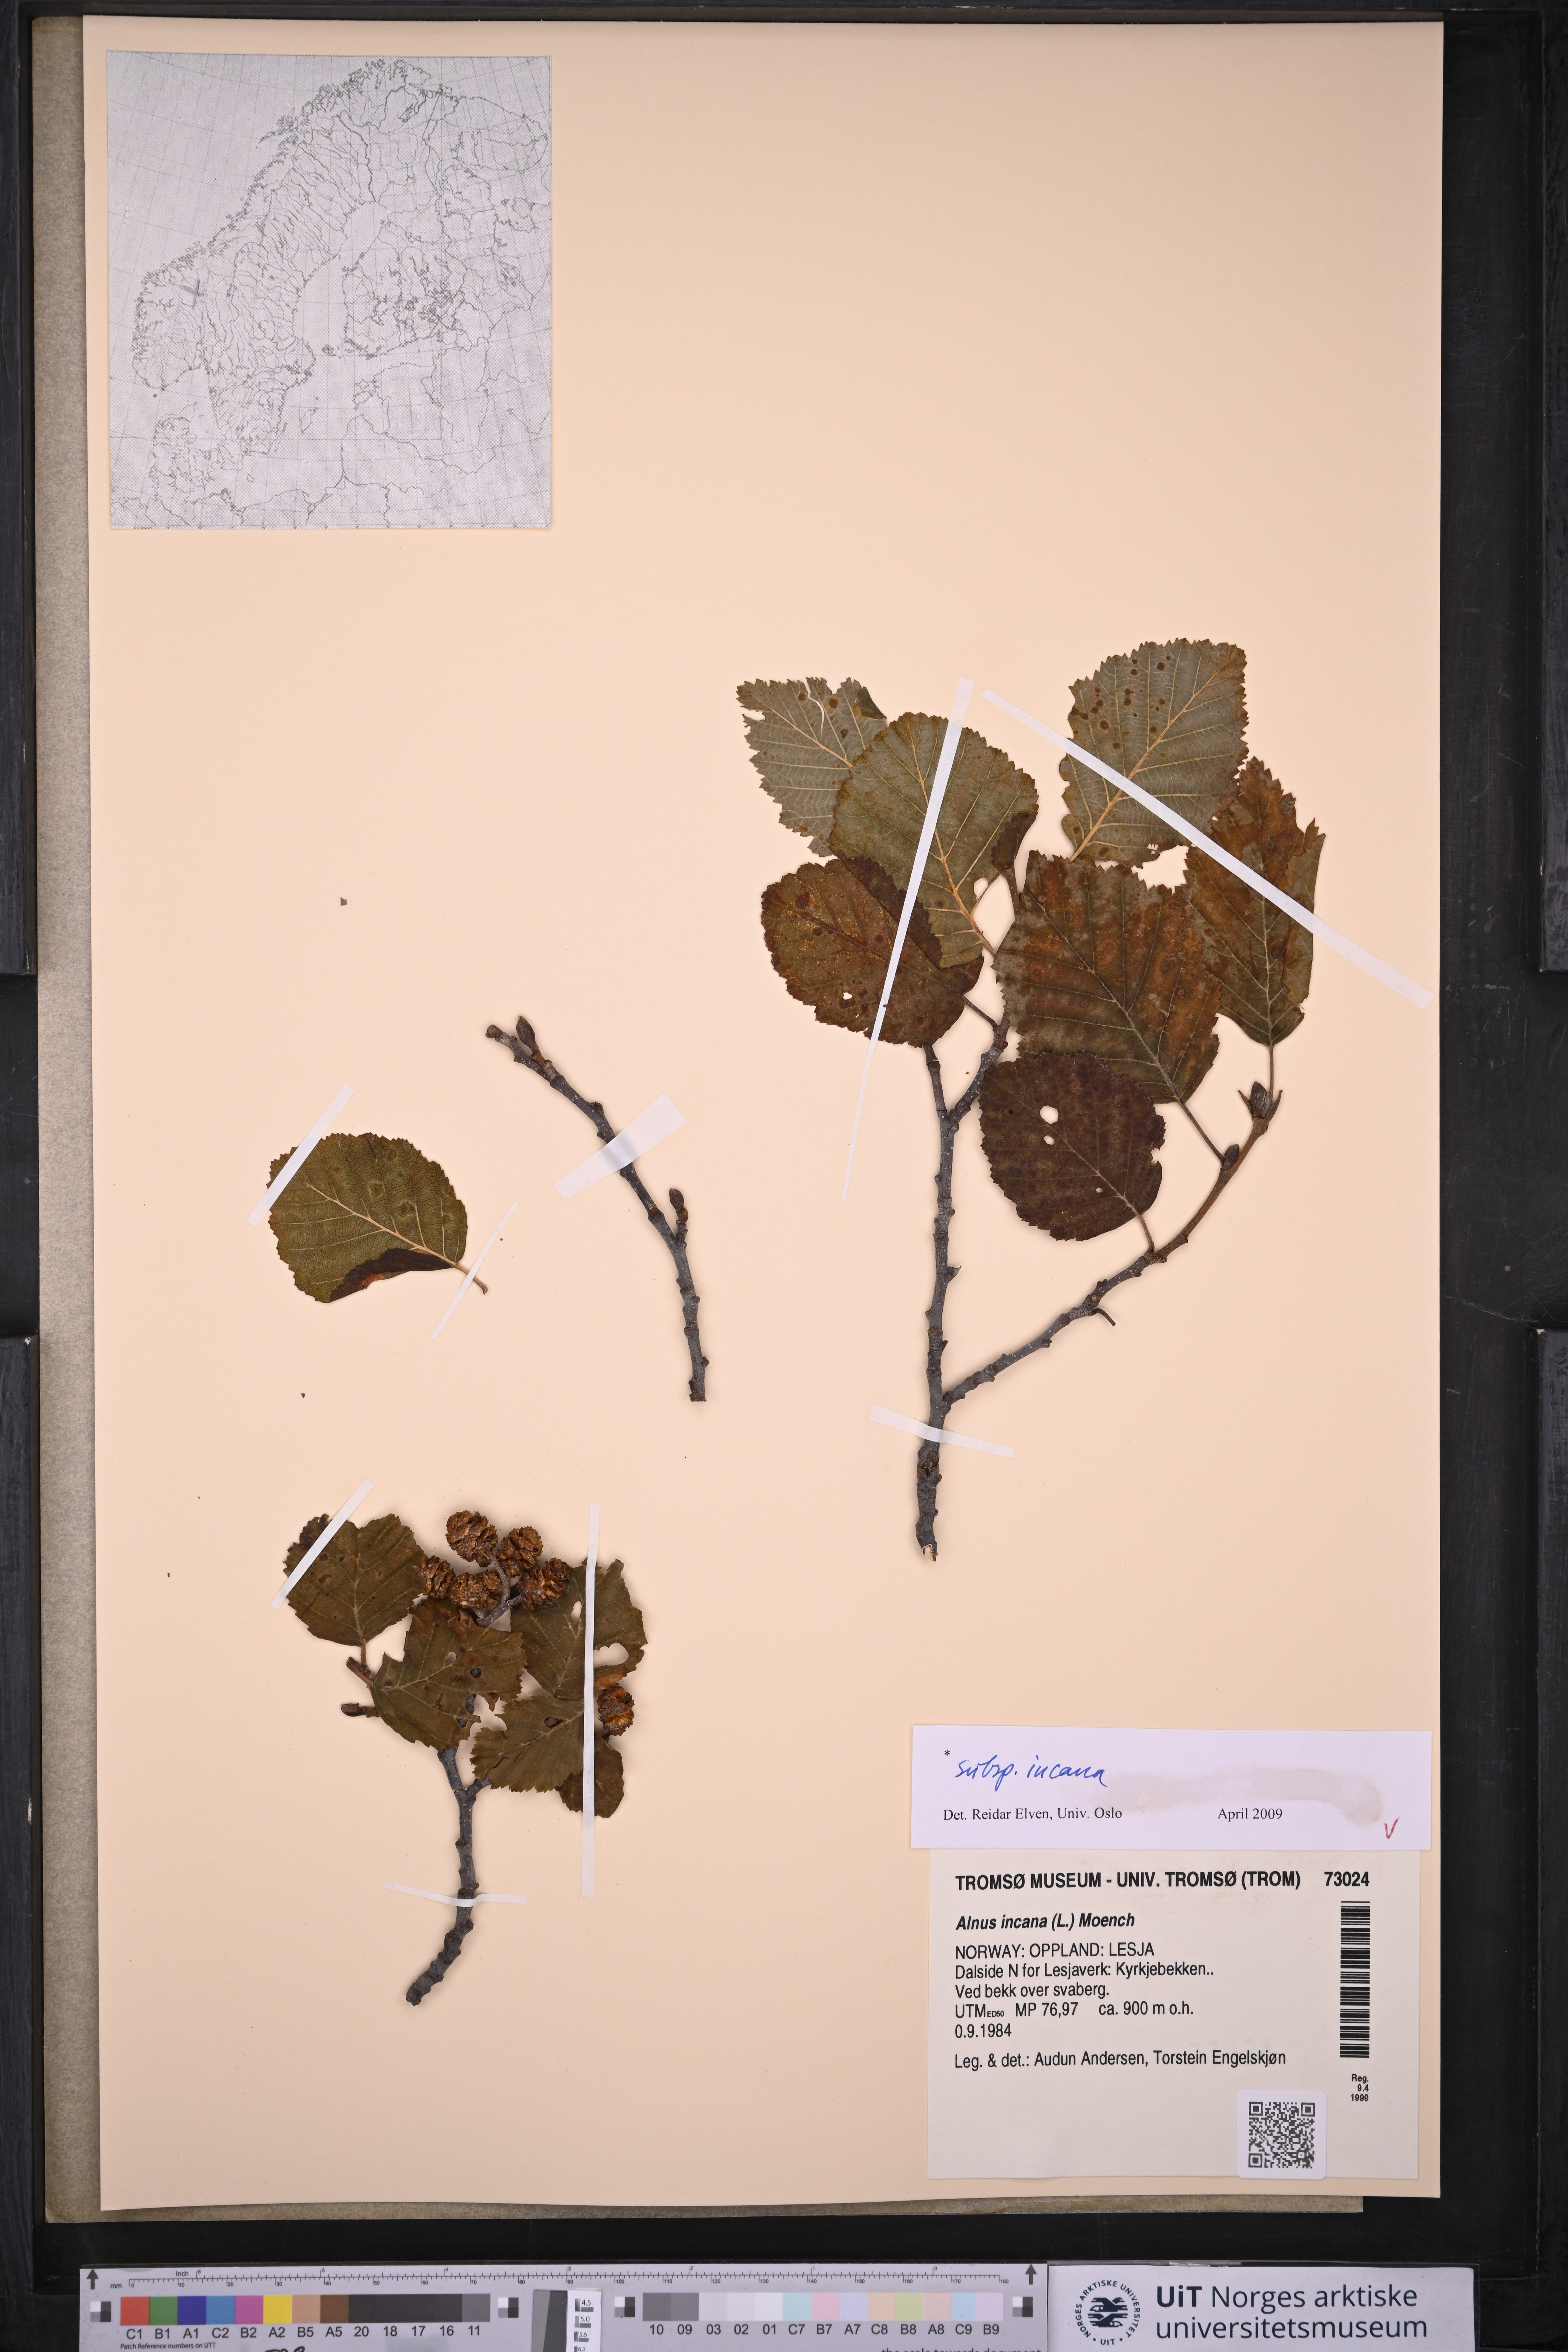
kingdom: Plantae
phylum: Tracheophyta
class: Magnoliopsida
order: Fagales
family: Betulaceae
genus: Alnus
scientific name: Alnus incana
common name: Grey alder
